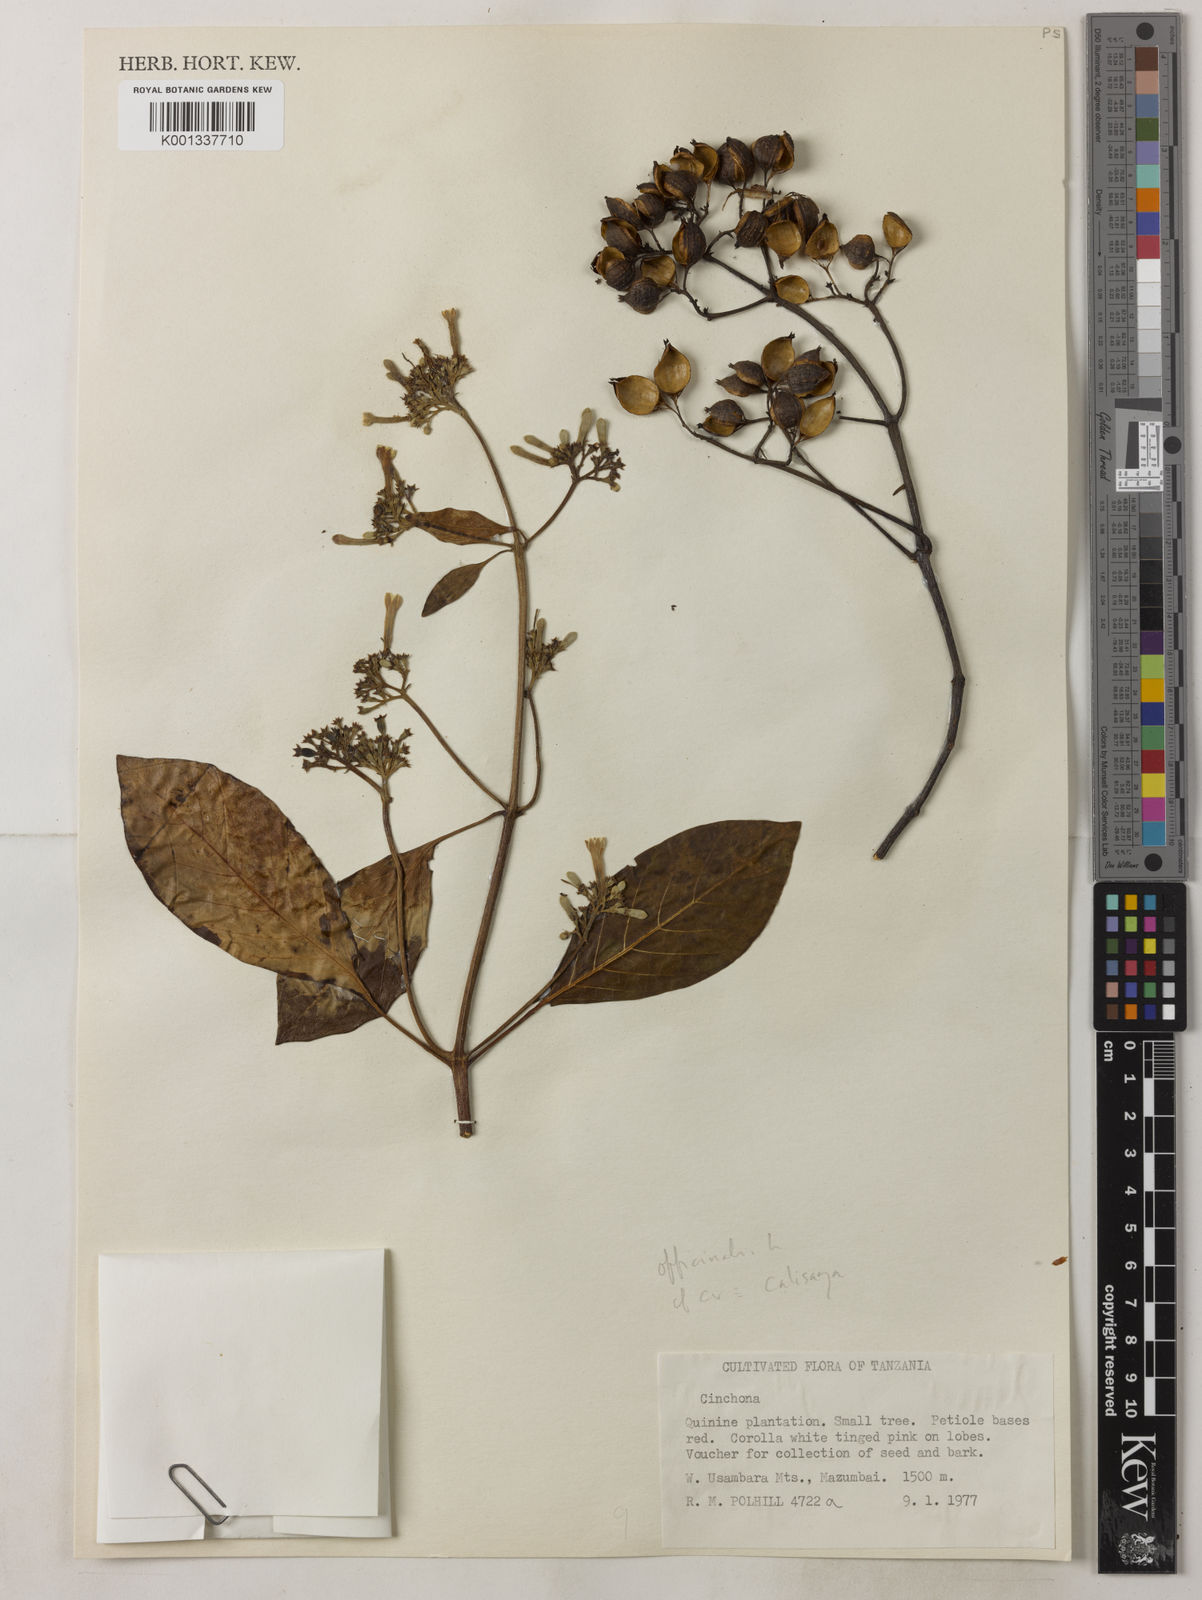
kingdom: Plantae
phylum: Tracheophyta
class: Magnoliopsida
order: Gentianales
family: Rubiaceae
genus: Cinchona
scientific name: Cinchona calisaya
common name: Ledgerbark
